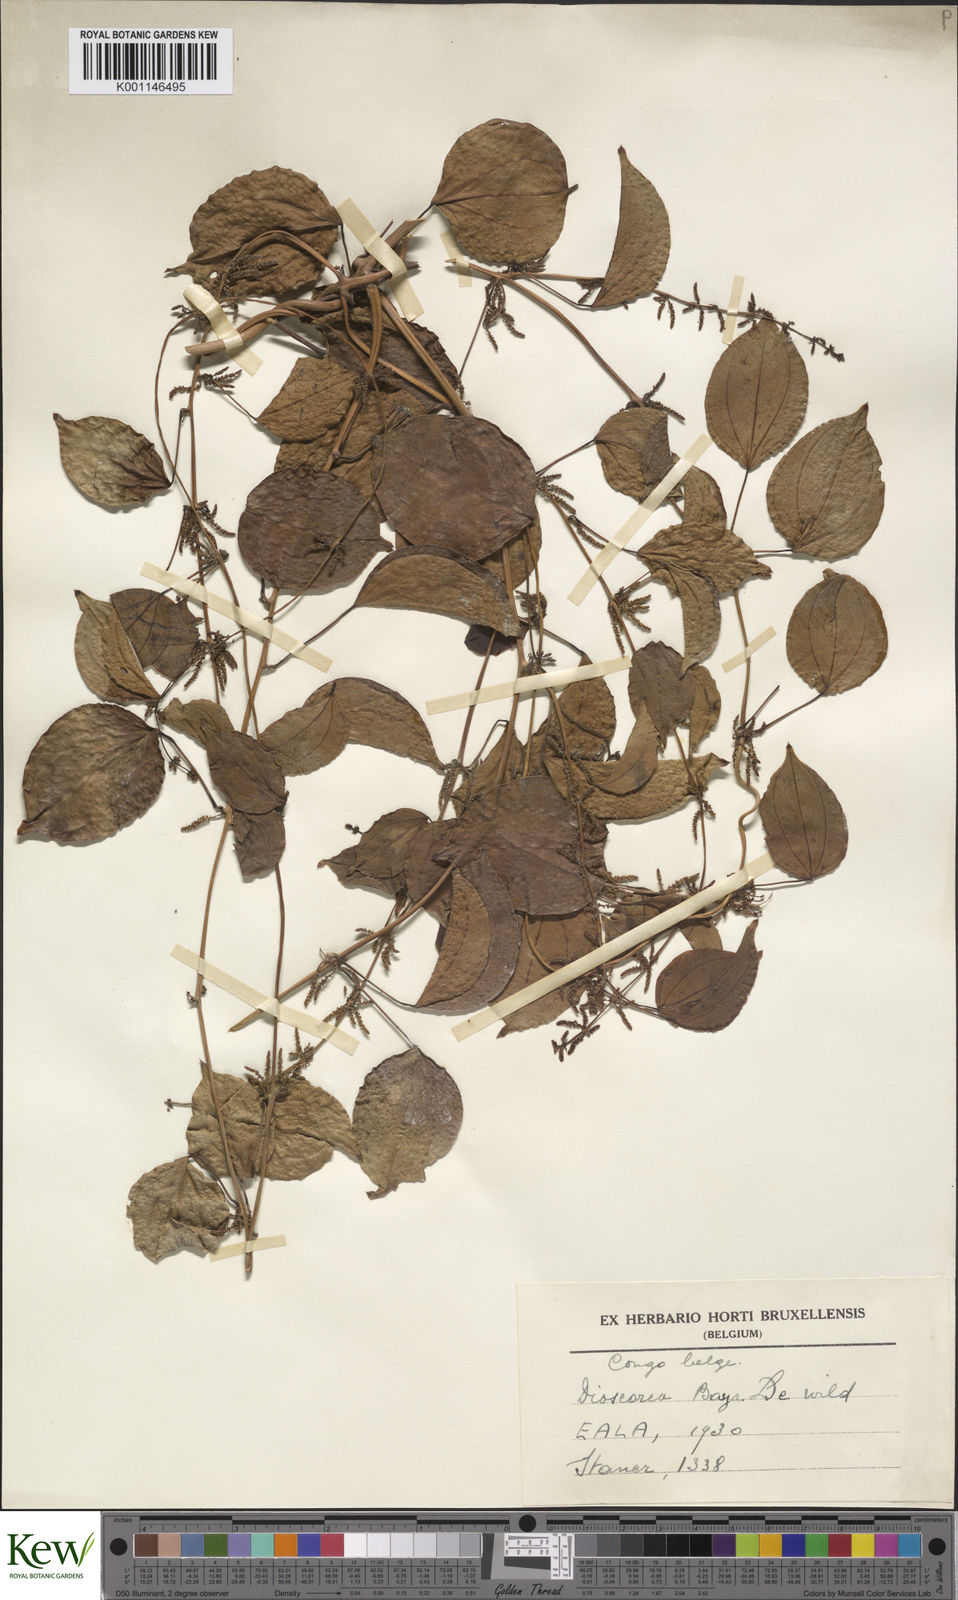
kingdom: Plantae
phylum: Tracheophyta
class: Liliopsida
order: Dioscoreales
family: Dioscoreaceae
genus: Dioscorea
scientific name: Dioscorea baya
